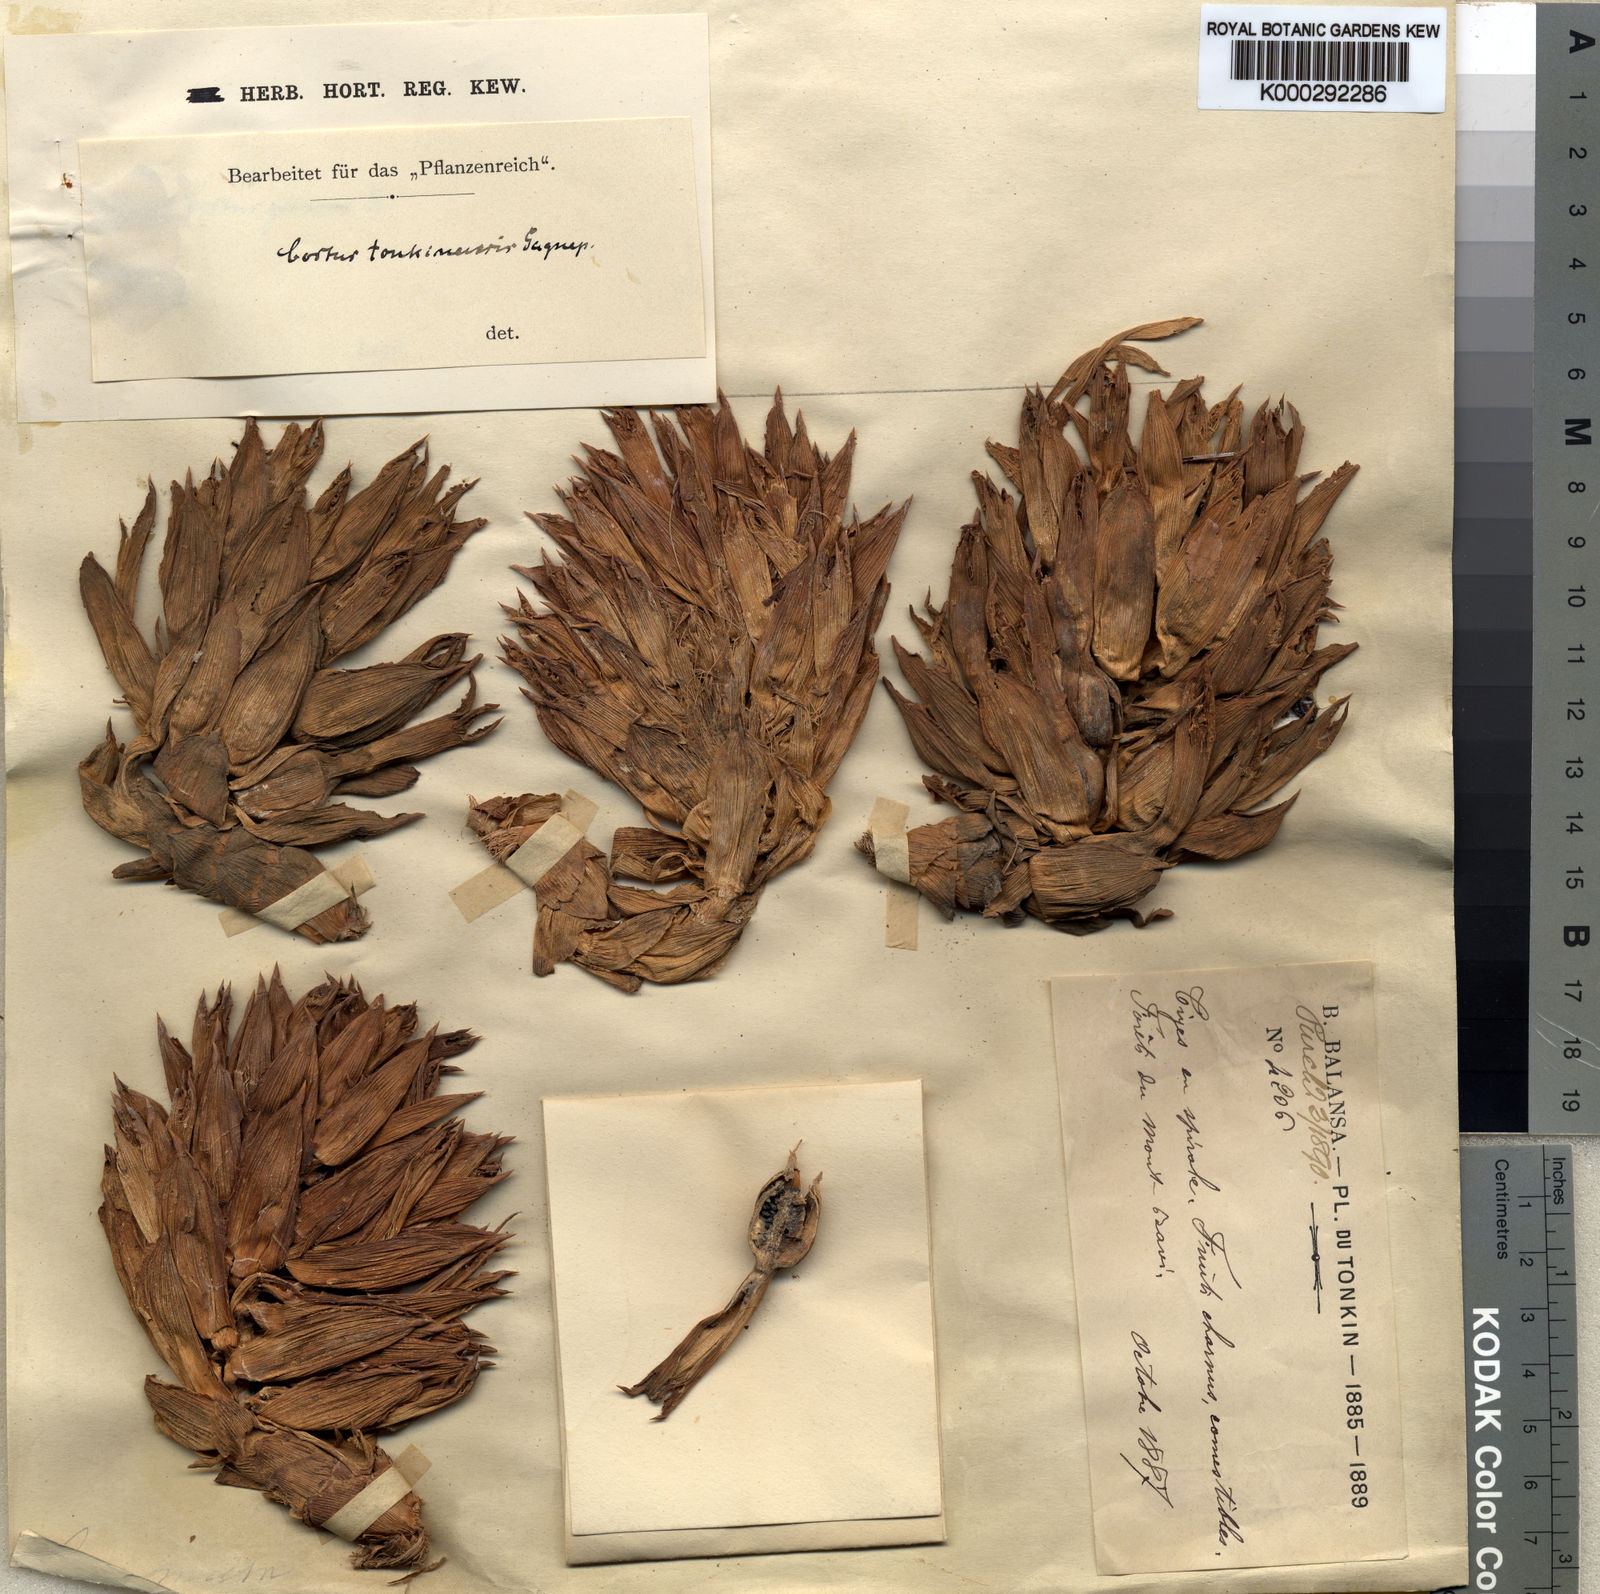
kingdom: Plantae
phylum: Tracheophyta
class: Liliopsida
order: Zingiberales
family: Costaceae
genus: Costus
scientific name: Costus tonkinensis
